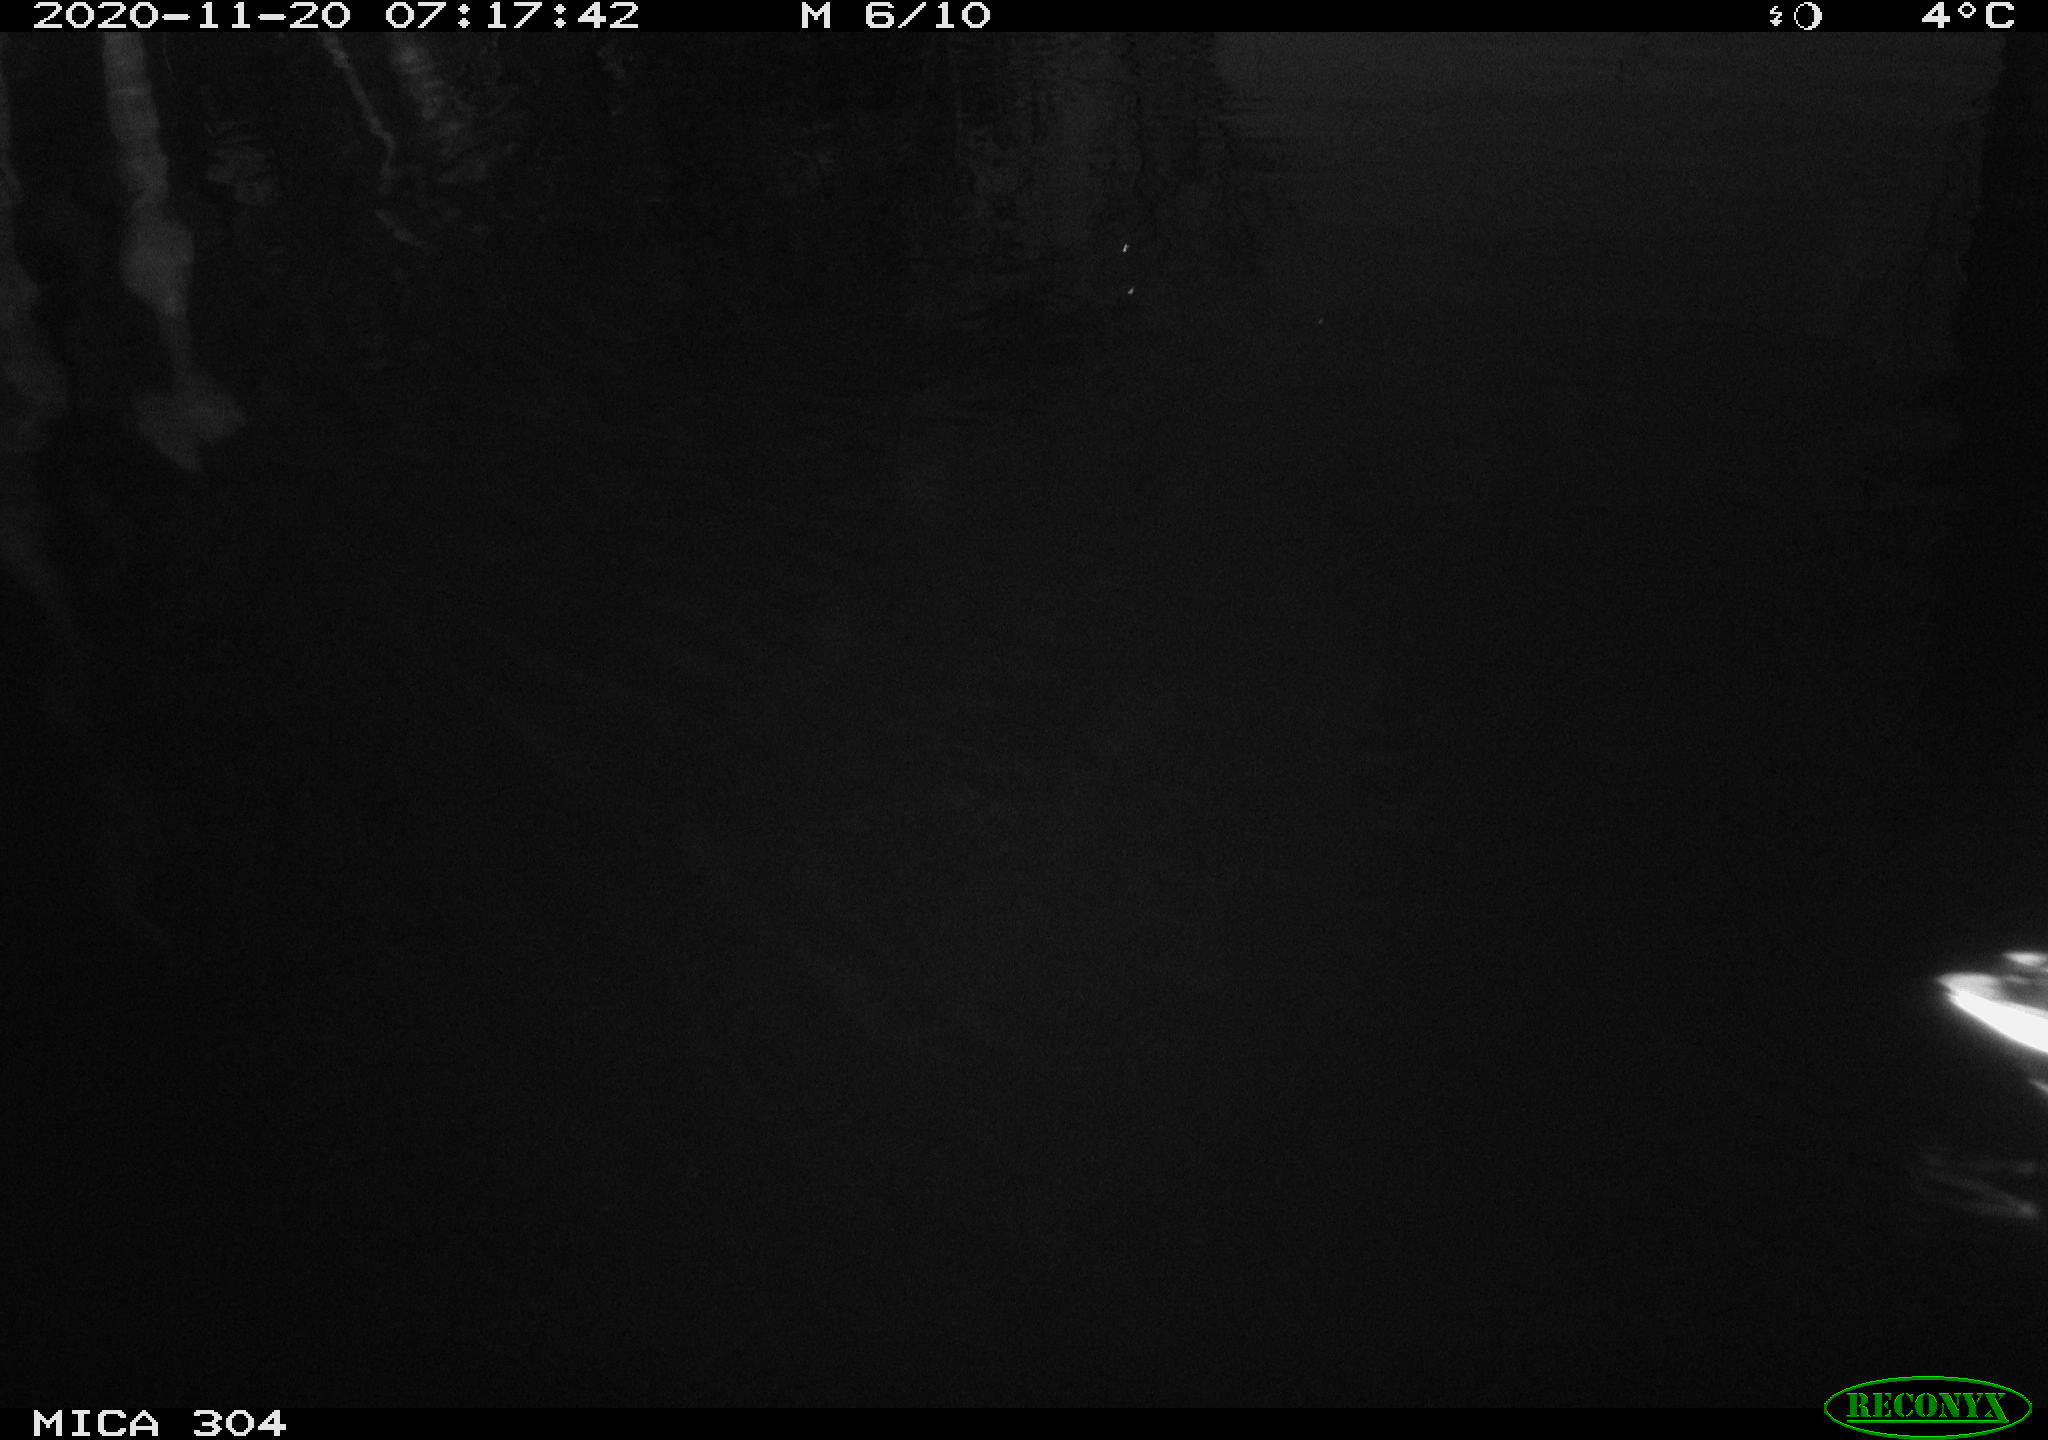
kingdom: Animalia
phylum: Chordata
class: Aves
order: Anseriformes
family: Anatidae
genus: Anas
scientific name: Anas platyrhynchos
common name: Mallard
